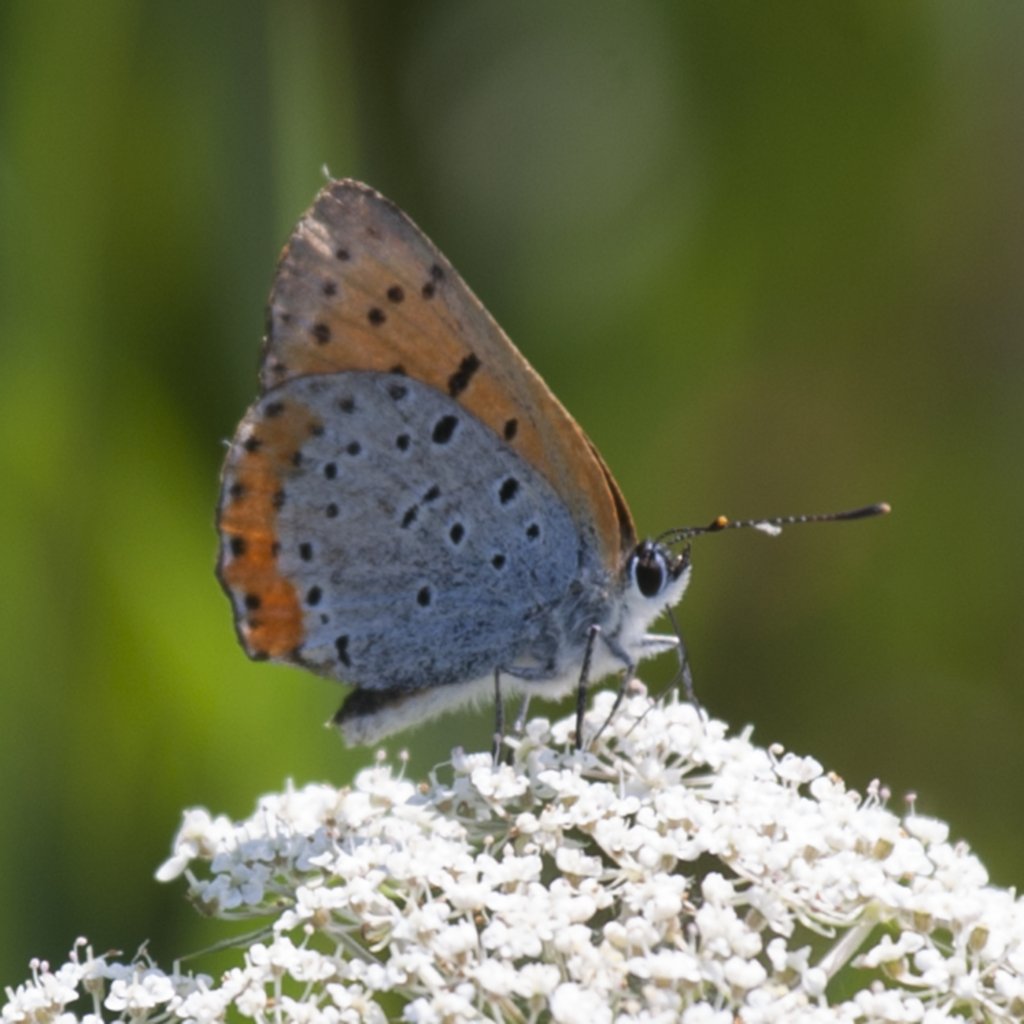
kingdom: Animalia
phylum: Arthropoda
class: Insecta
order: Lepidoptera
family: Sesiidae
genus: Sesia
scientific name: Sesia Lycaena hyllus
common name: Bronze Copper
